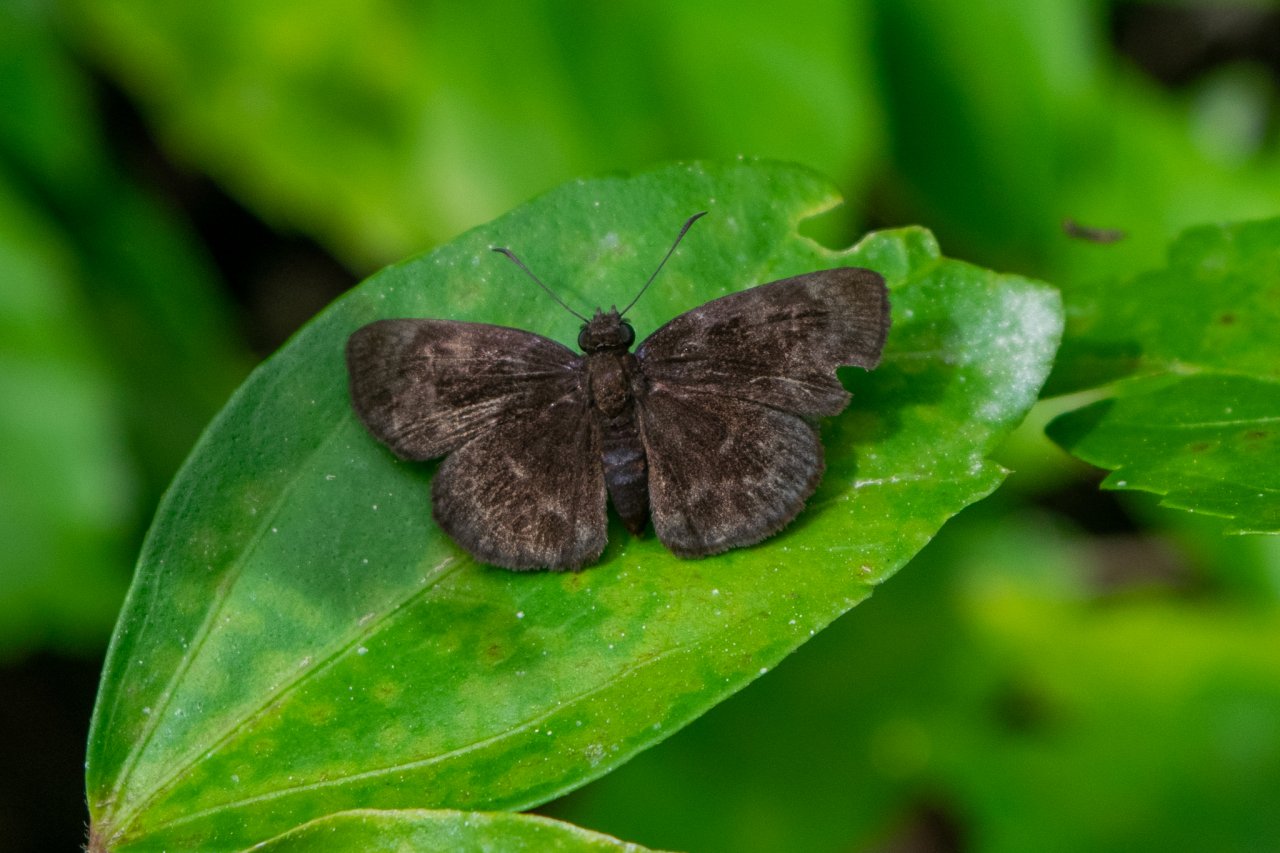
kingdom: Animalia
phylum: Arthropoda
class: Insecta
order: Lepidoptera
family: Hesperiidae
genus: Staphylus
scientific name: Staphylus
